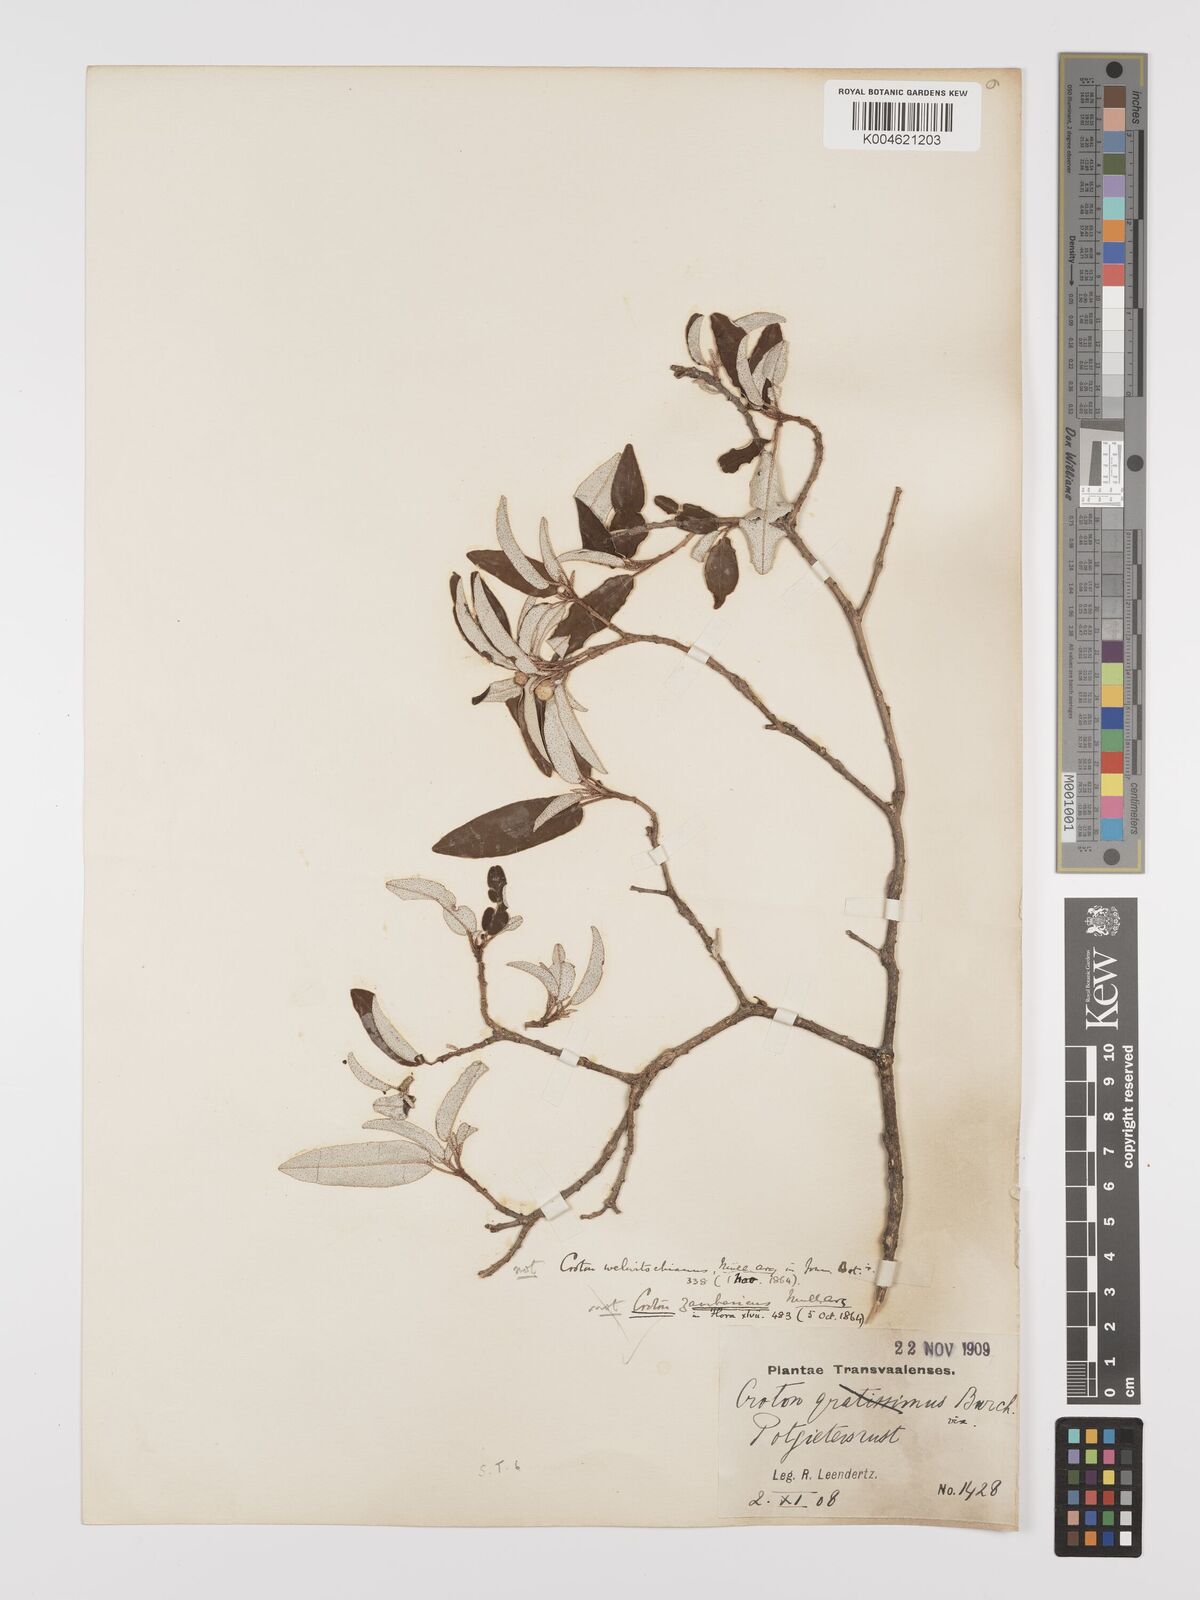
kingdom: Plantae
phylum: Tracheophyta
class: Magnoliopsida
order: Malpighiales
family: Euphorbiaceae
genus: Croton
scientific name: Croton gratissimus
